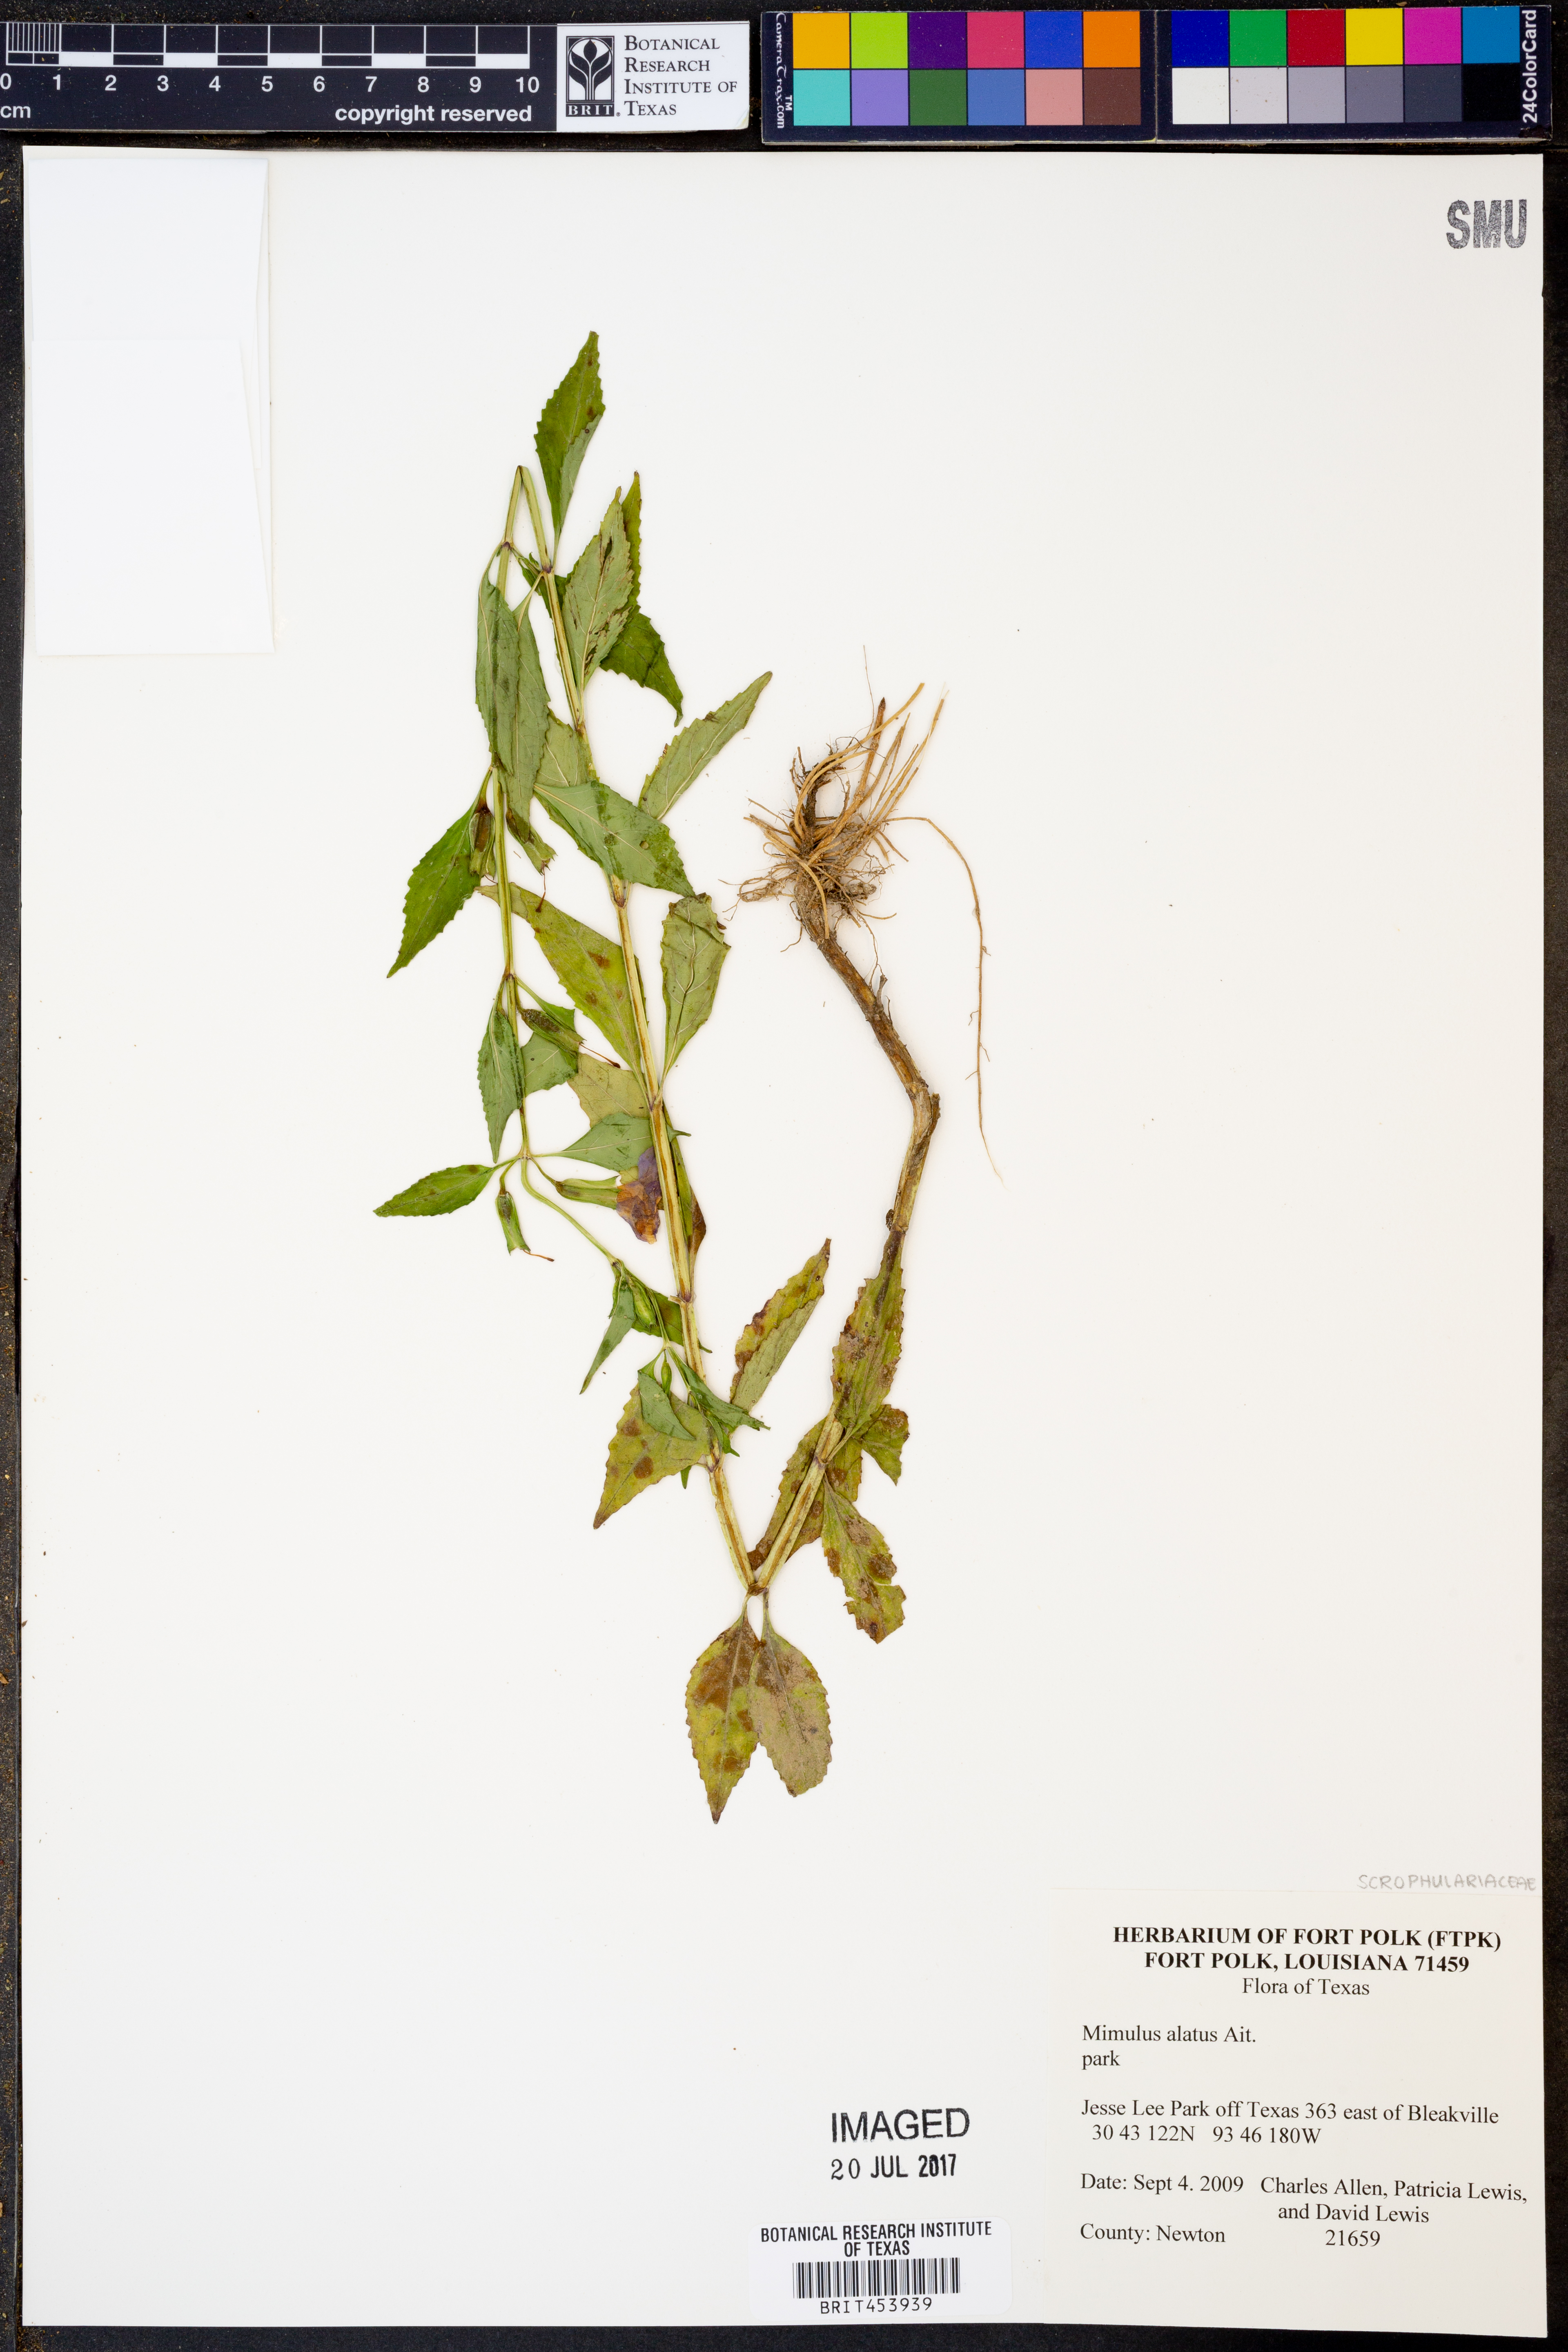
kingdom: Plantae
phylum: Tracheophyta
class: Magnoliopsida
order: Lamiales
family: Phrymaceae
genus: Mimulus
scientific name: Mimulus alatus
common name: Sharp-wing monkey-flower
